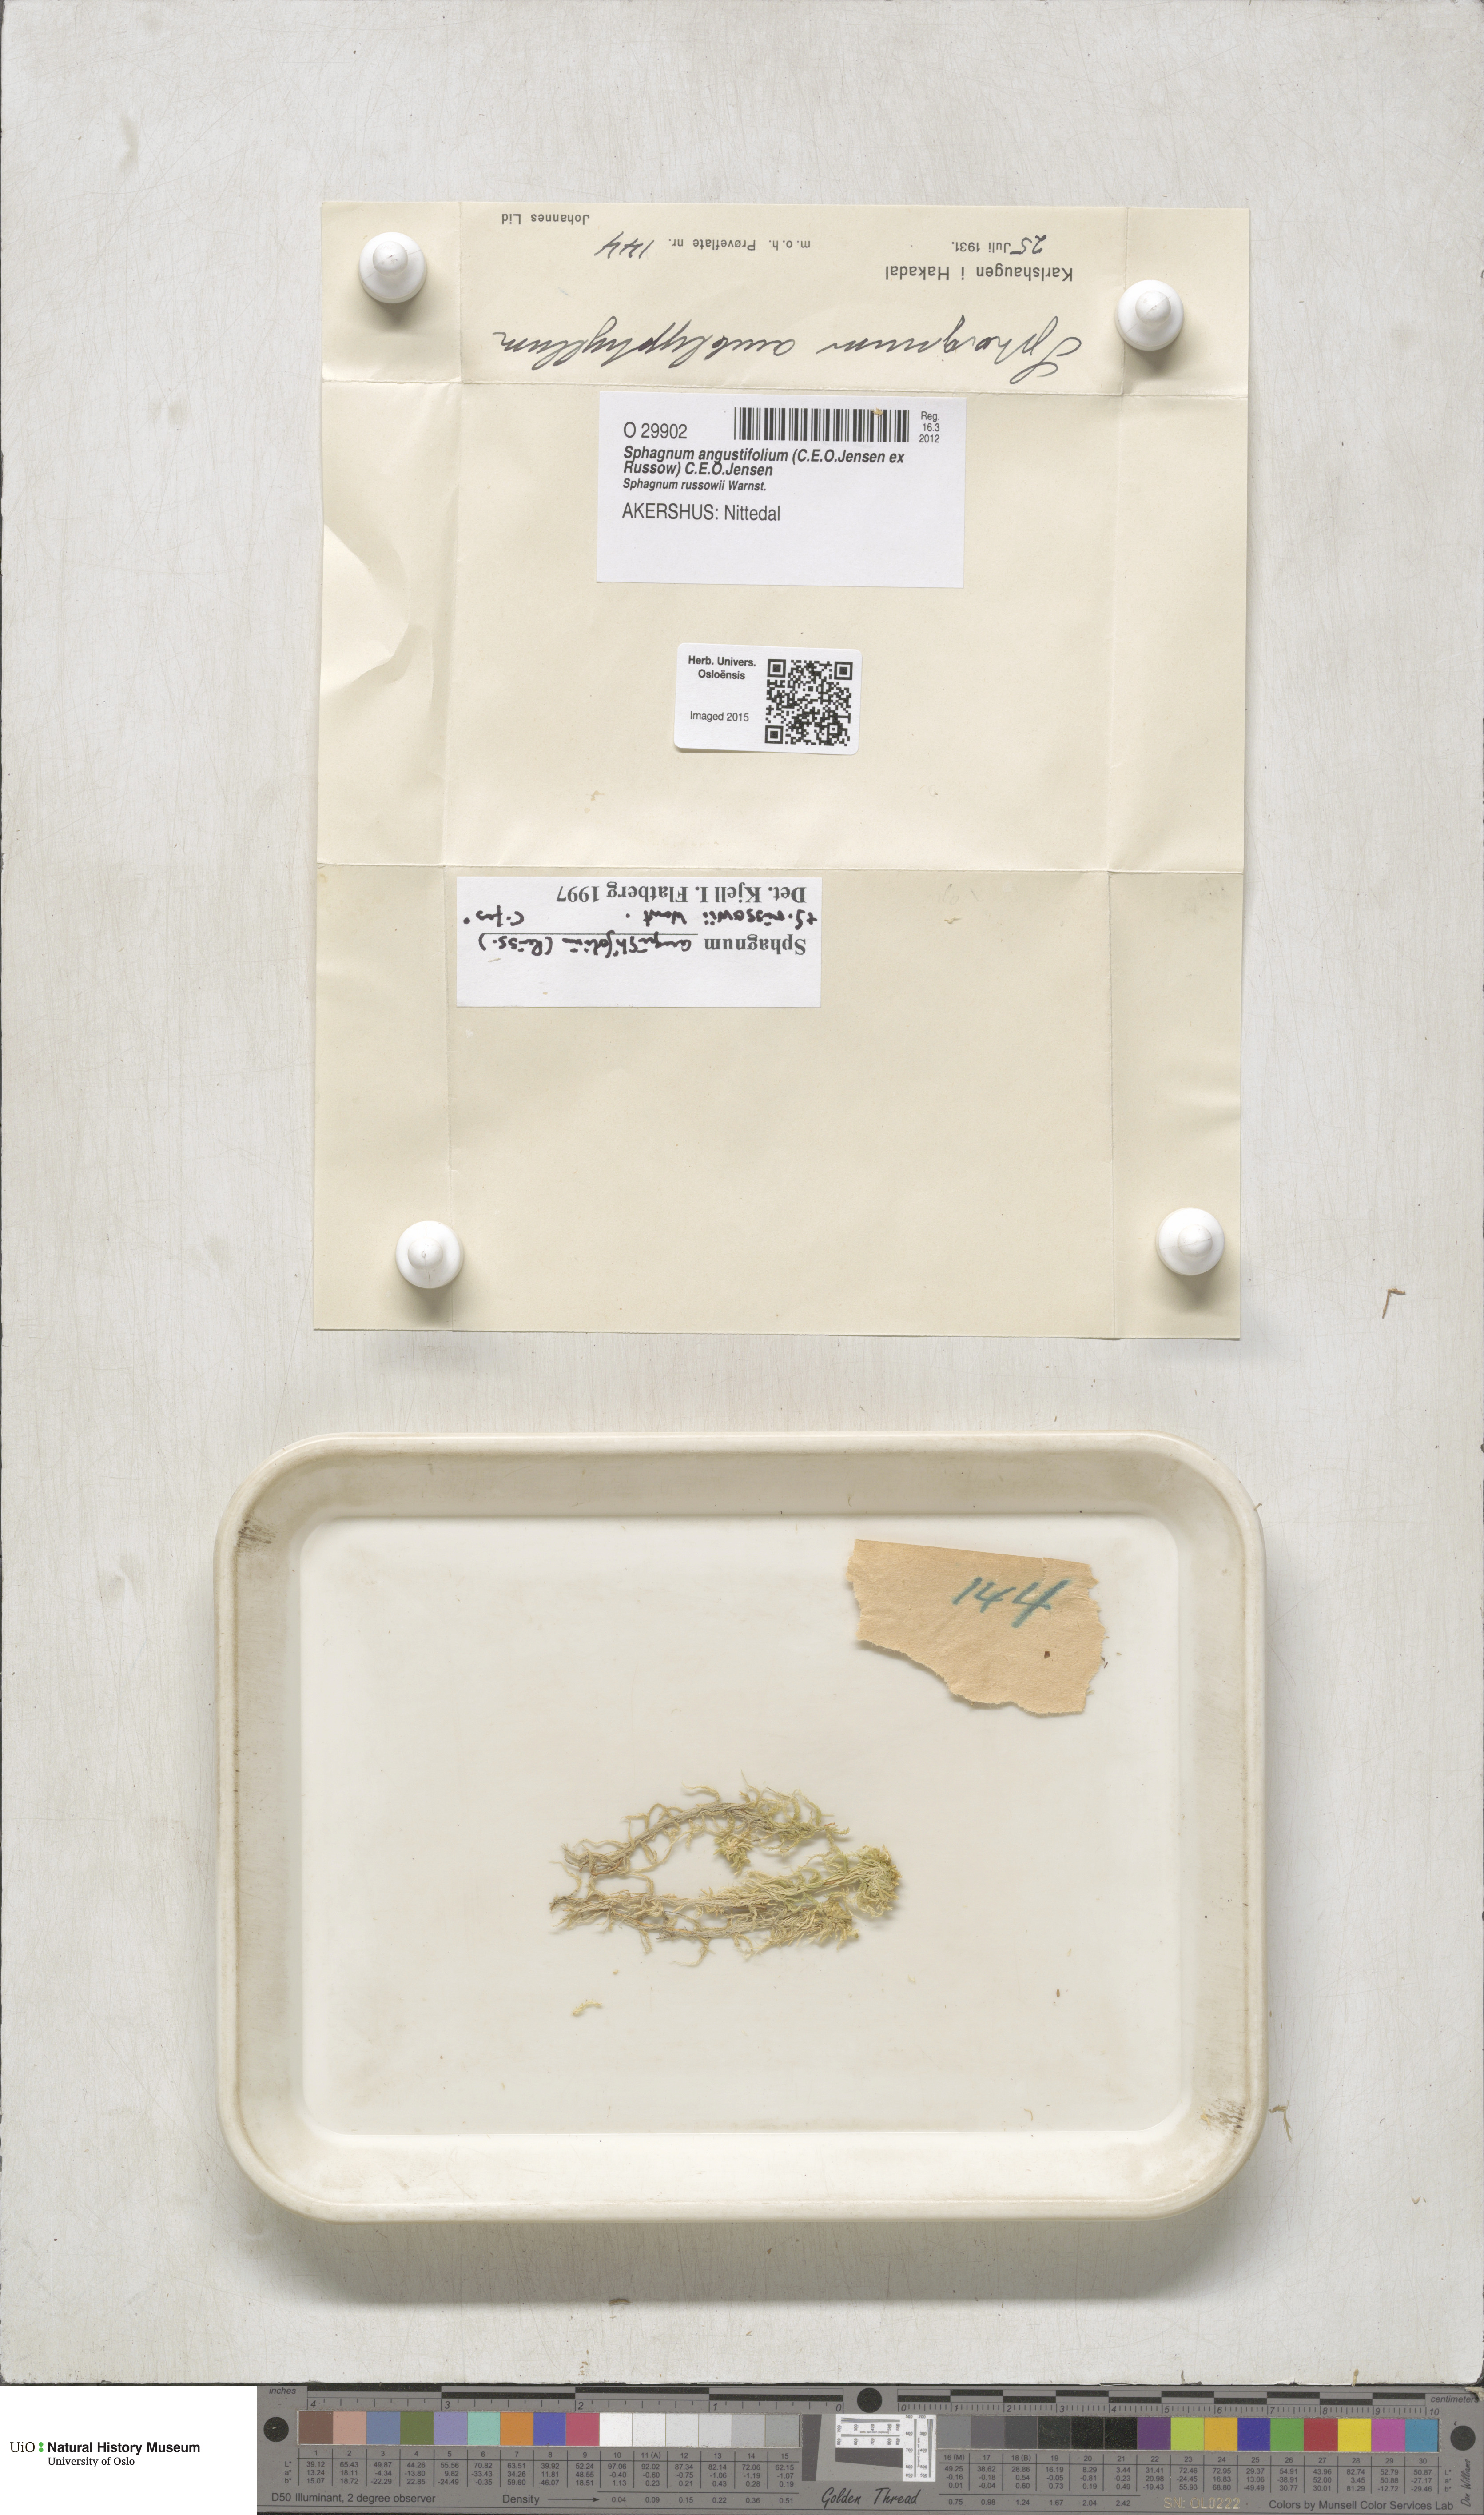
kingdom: Plantae
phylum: Bryophyta
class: Sphagnopsida
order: Sphagnales
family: Sphagnaceae
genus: Sphagnum
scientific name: Sphagnum angustifolium
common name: Narrow-leaved peat moss
